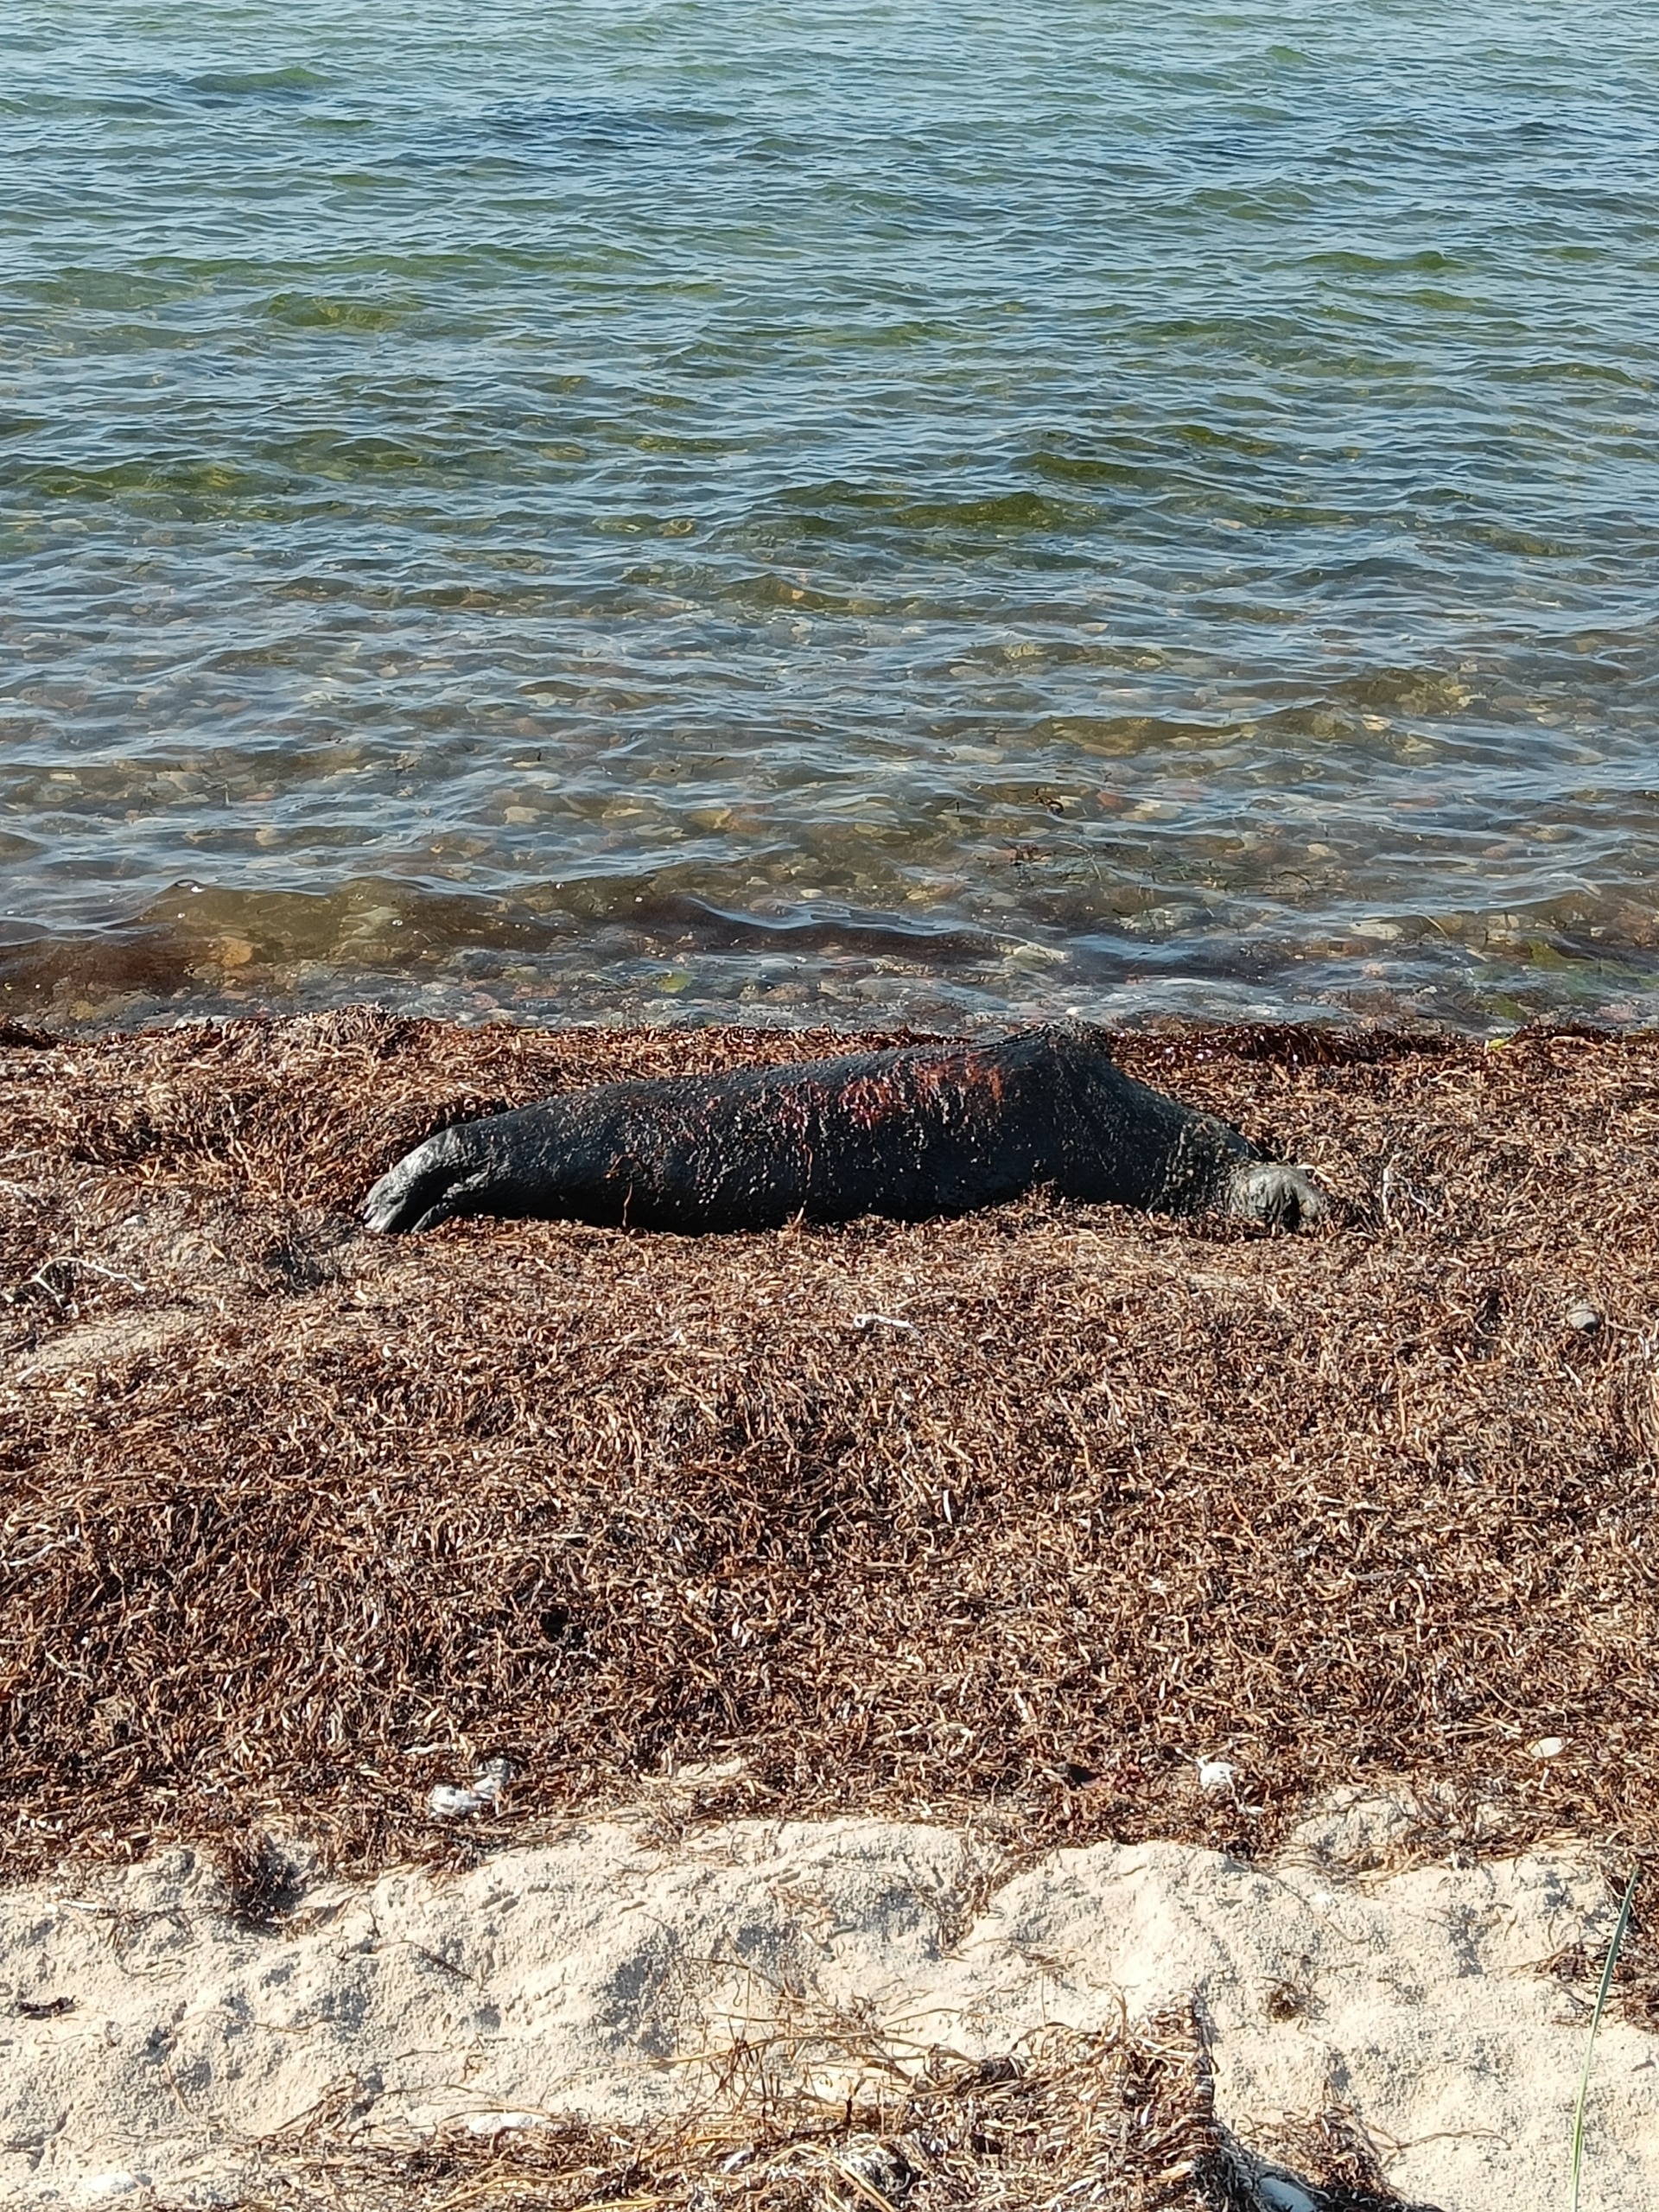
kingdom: Animalia
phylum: Chordata
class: Mammalia
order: Carnivora
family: Phocidae
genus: Phoca
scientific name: Phoca vitulina
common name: Spættet sæl
